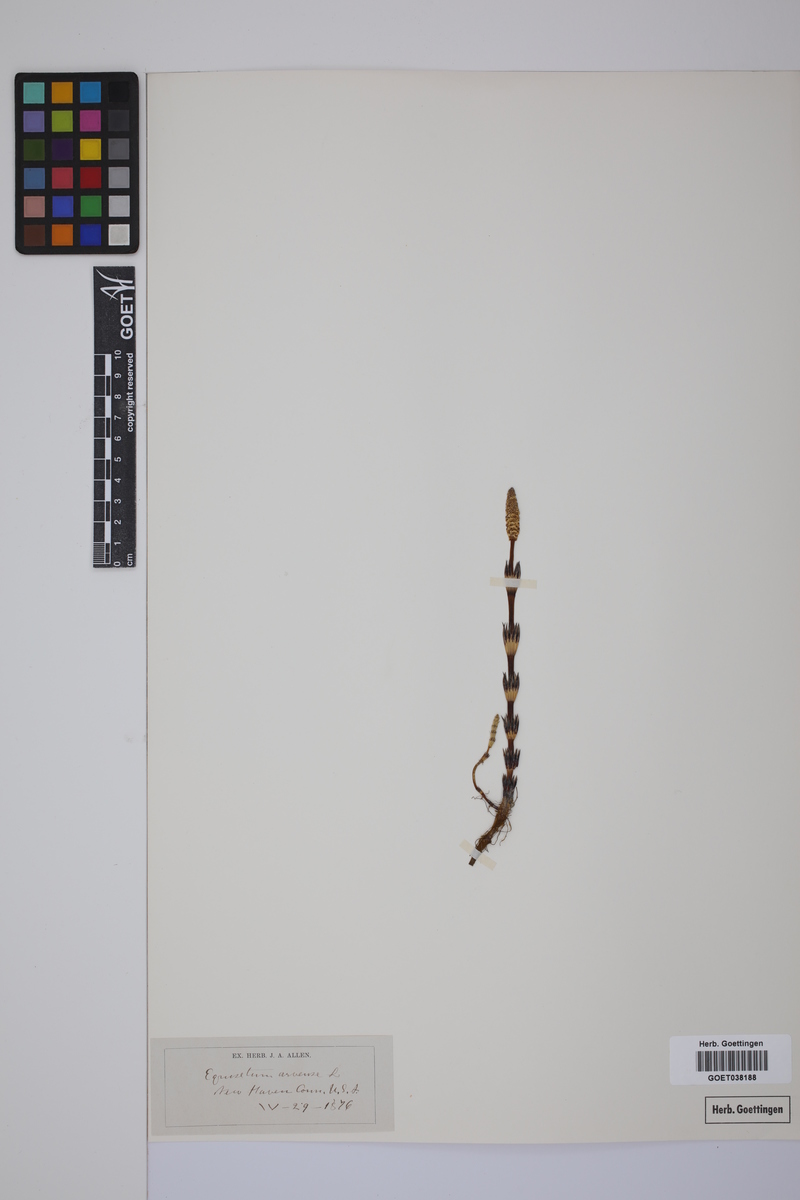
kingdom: Plantae
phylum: Tracheophyta
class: Polypodiopsida
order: Equisetales
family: Equisetaceae
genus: Equisetum
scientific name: Equisetum arvense
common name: Field horsetail
